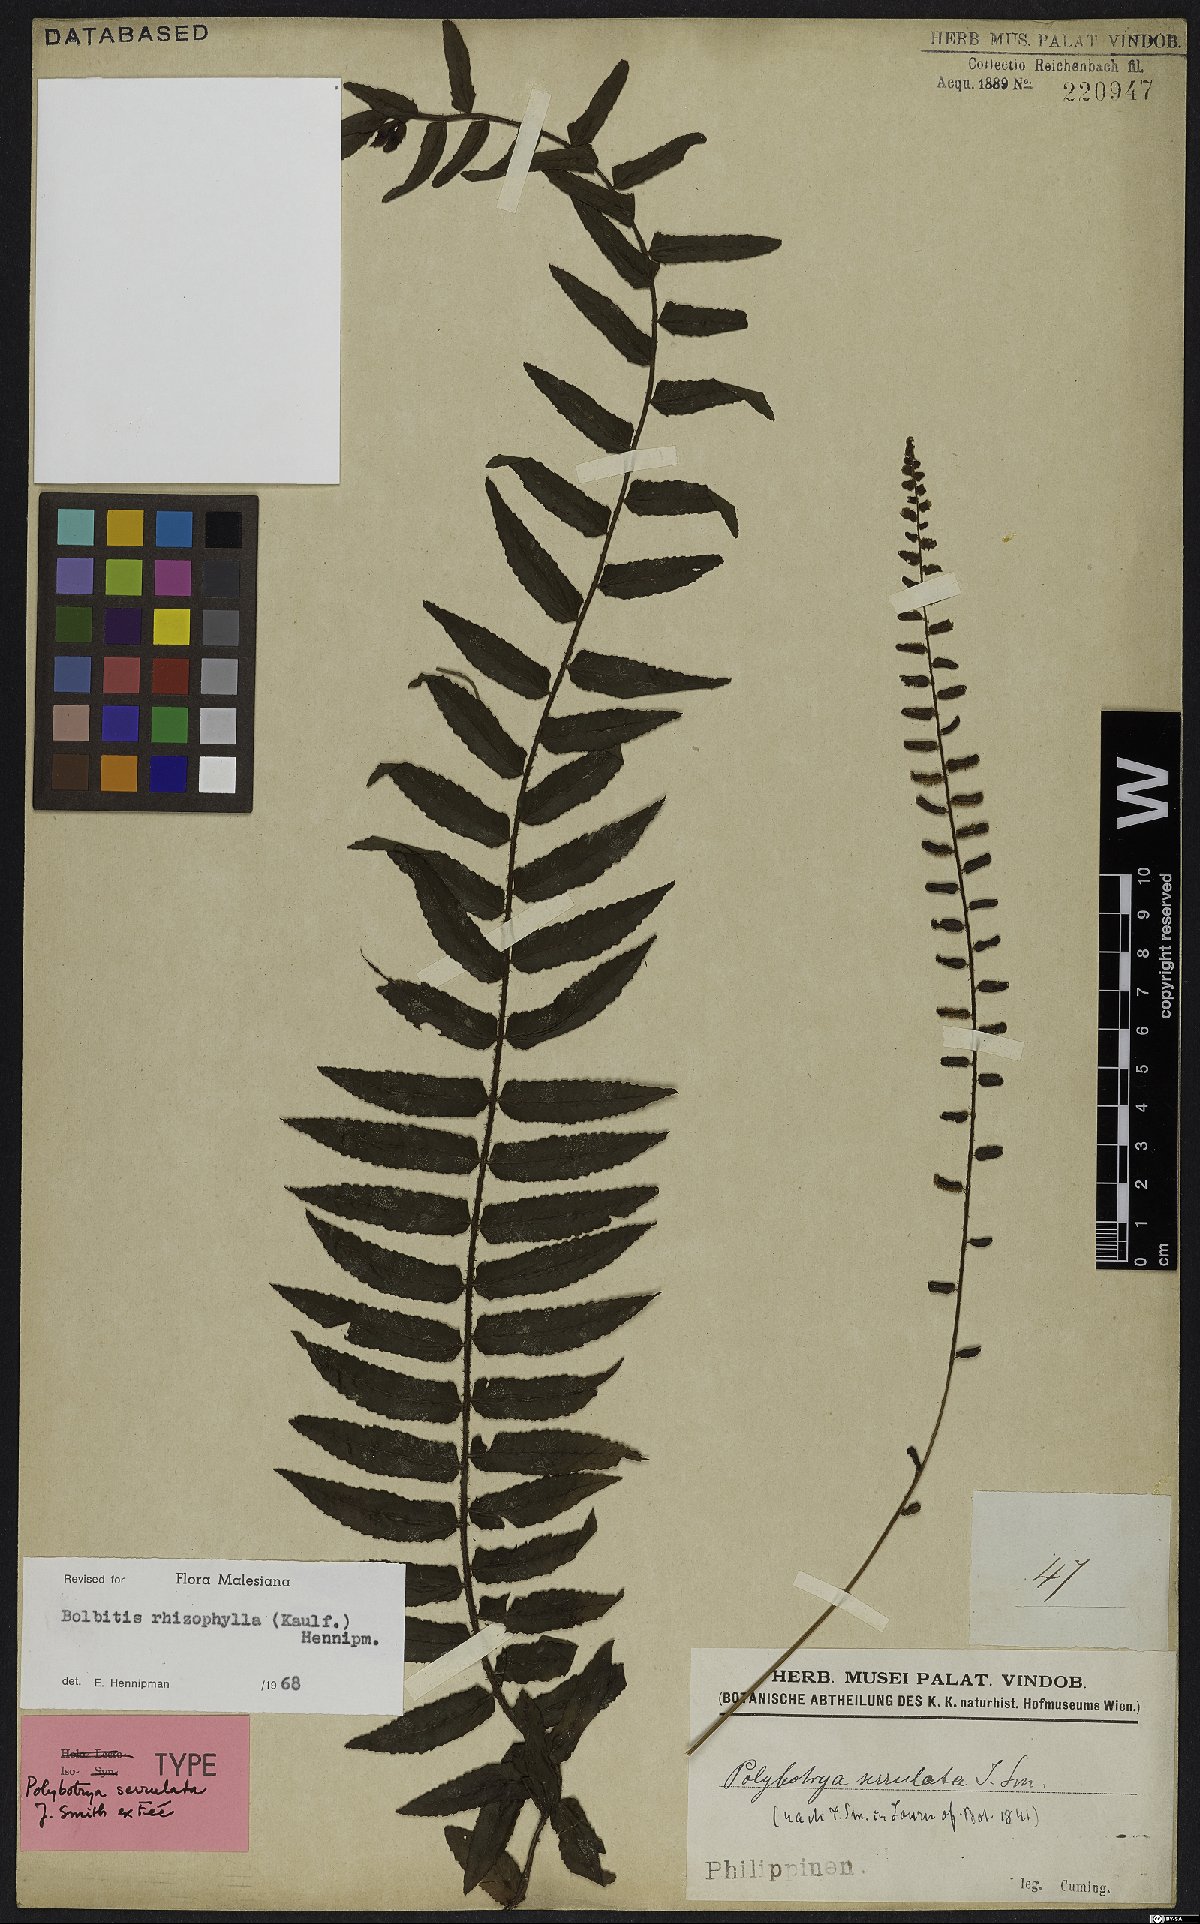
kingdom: Plantae
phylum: Tracheophyta
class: Polypodiopsida
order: Polypodiales
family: Dryopteridaceae
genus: Bolbitis
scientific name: Bolbitis rhizophylla
